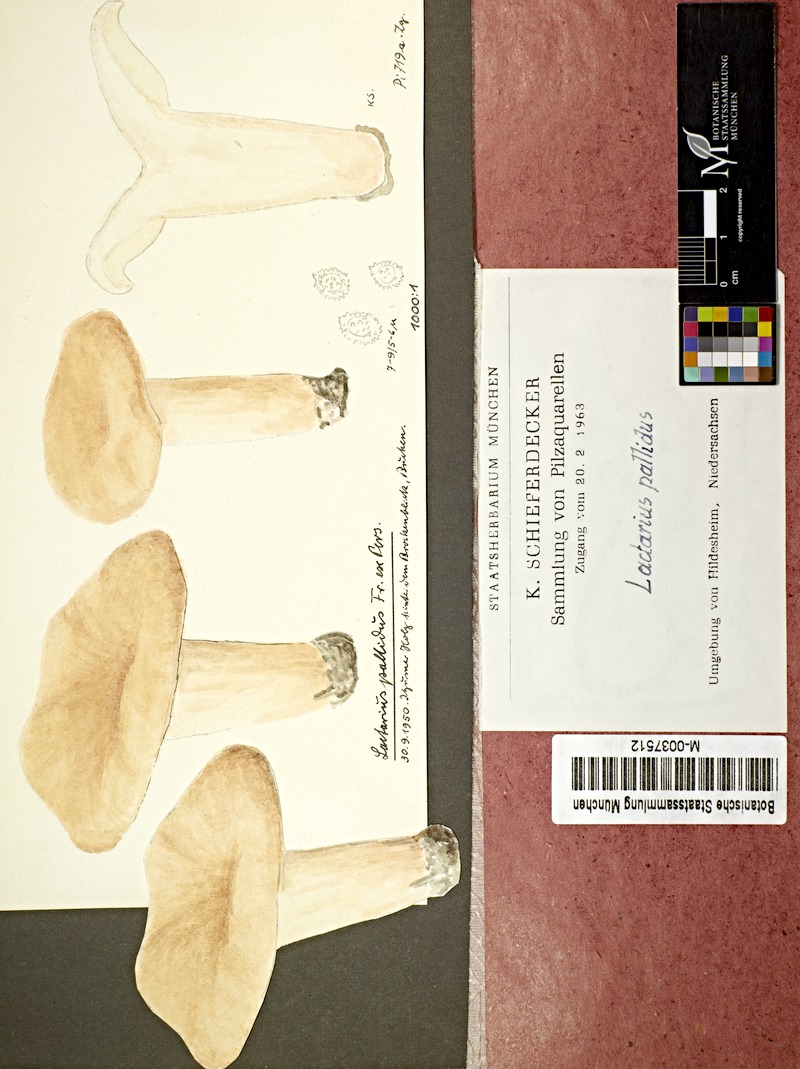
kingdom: Fungi
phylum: Basidiomycota
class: Agaricomycetes
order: Russulales
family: Russulaceae
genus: Lactarius
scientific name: Lactarius pallidus
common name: Pale milkcap
